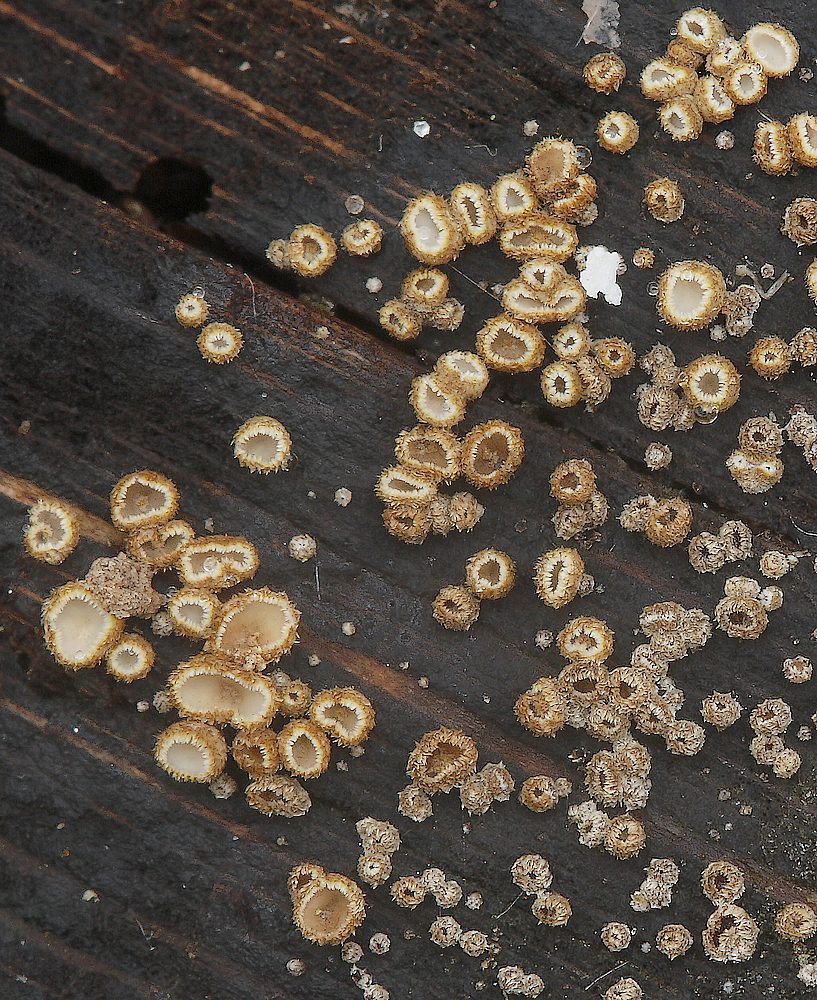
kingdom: Fungi
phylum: Ascomycota
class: Leotiomycetes
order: Helotiales
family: Lachnaceae
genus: Trichopeziza
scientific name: Trichopeziza subsulphurea
